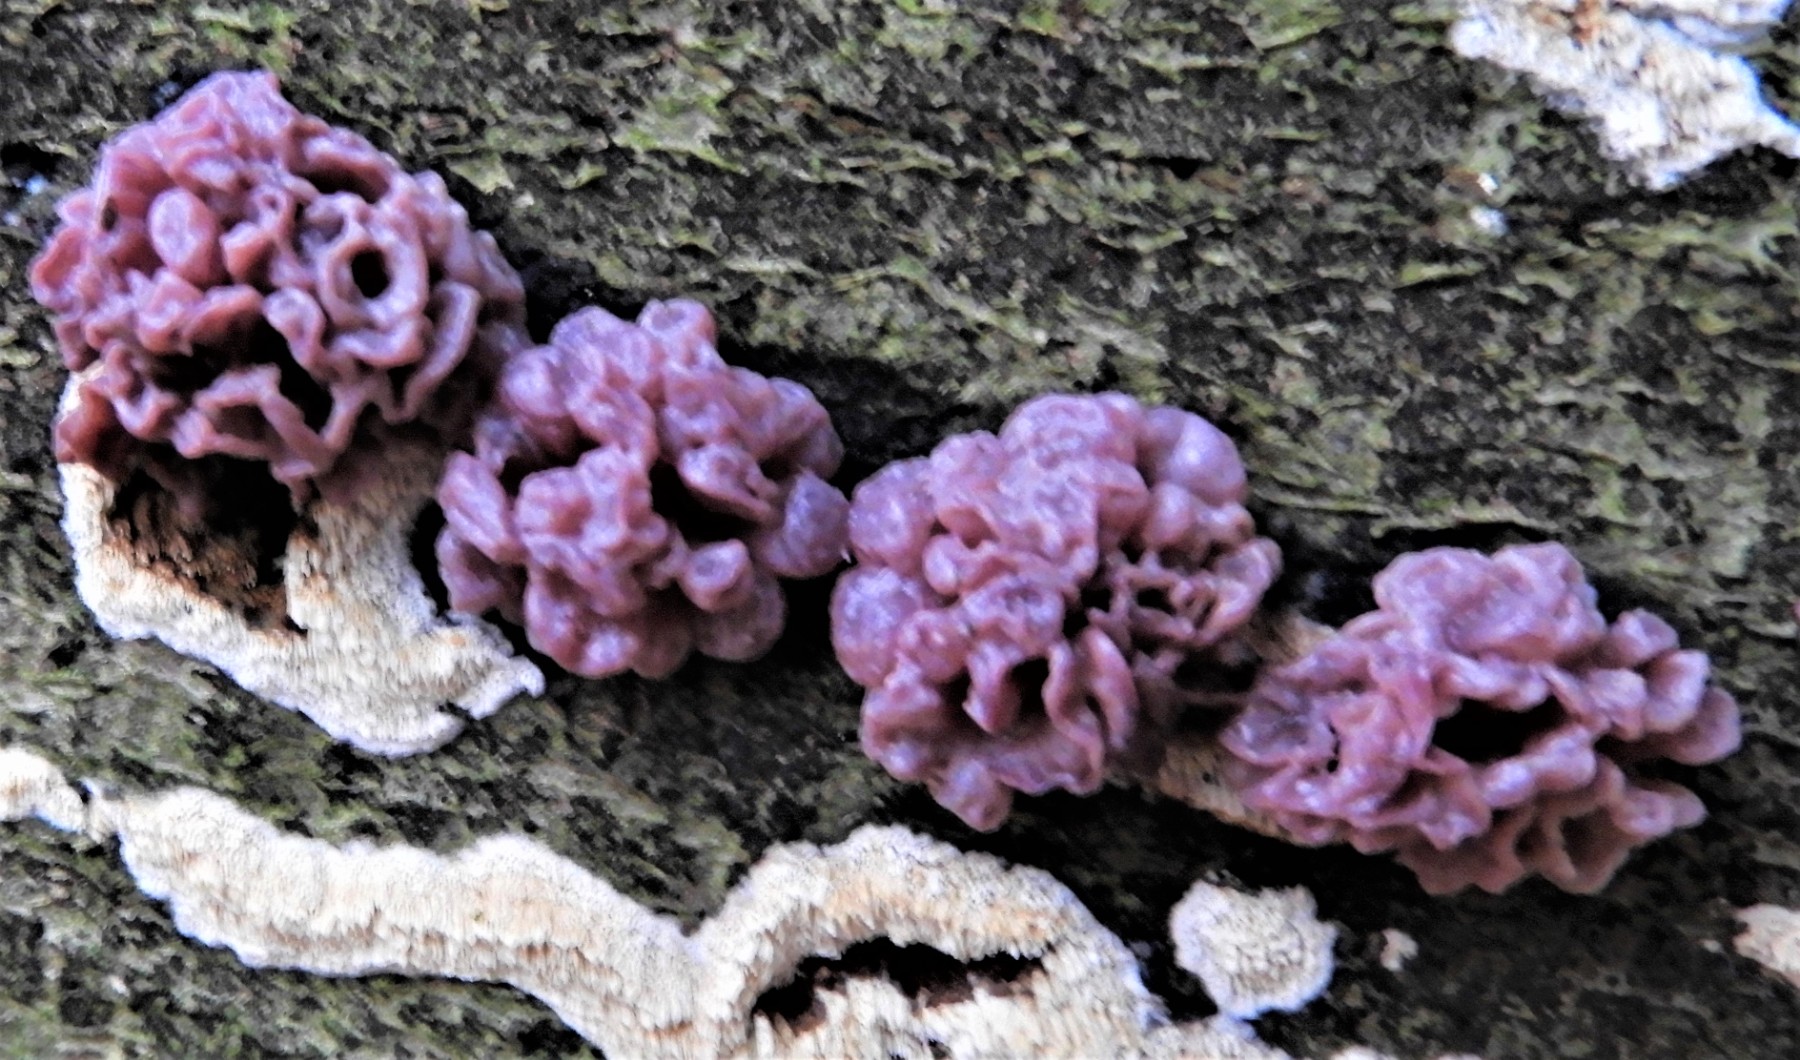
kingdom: Fungi
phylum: Ascomycota
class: Leotiomycetes
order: Helotiales
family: Gelatinodiscaceae
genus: Ascocoryne
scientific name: Ascocoryne sarcoides
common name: rødlilla sejskive
